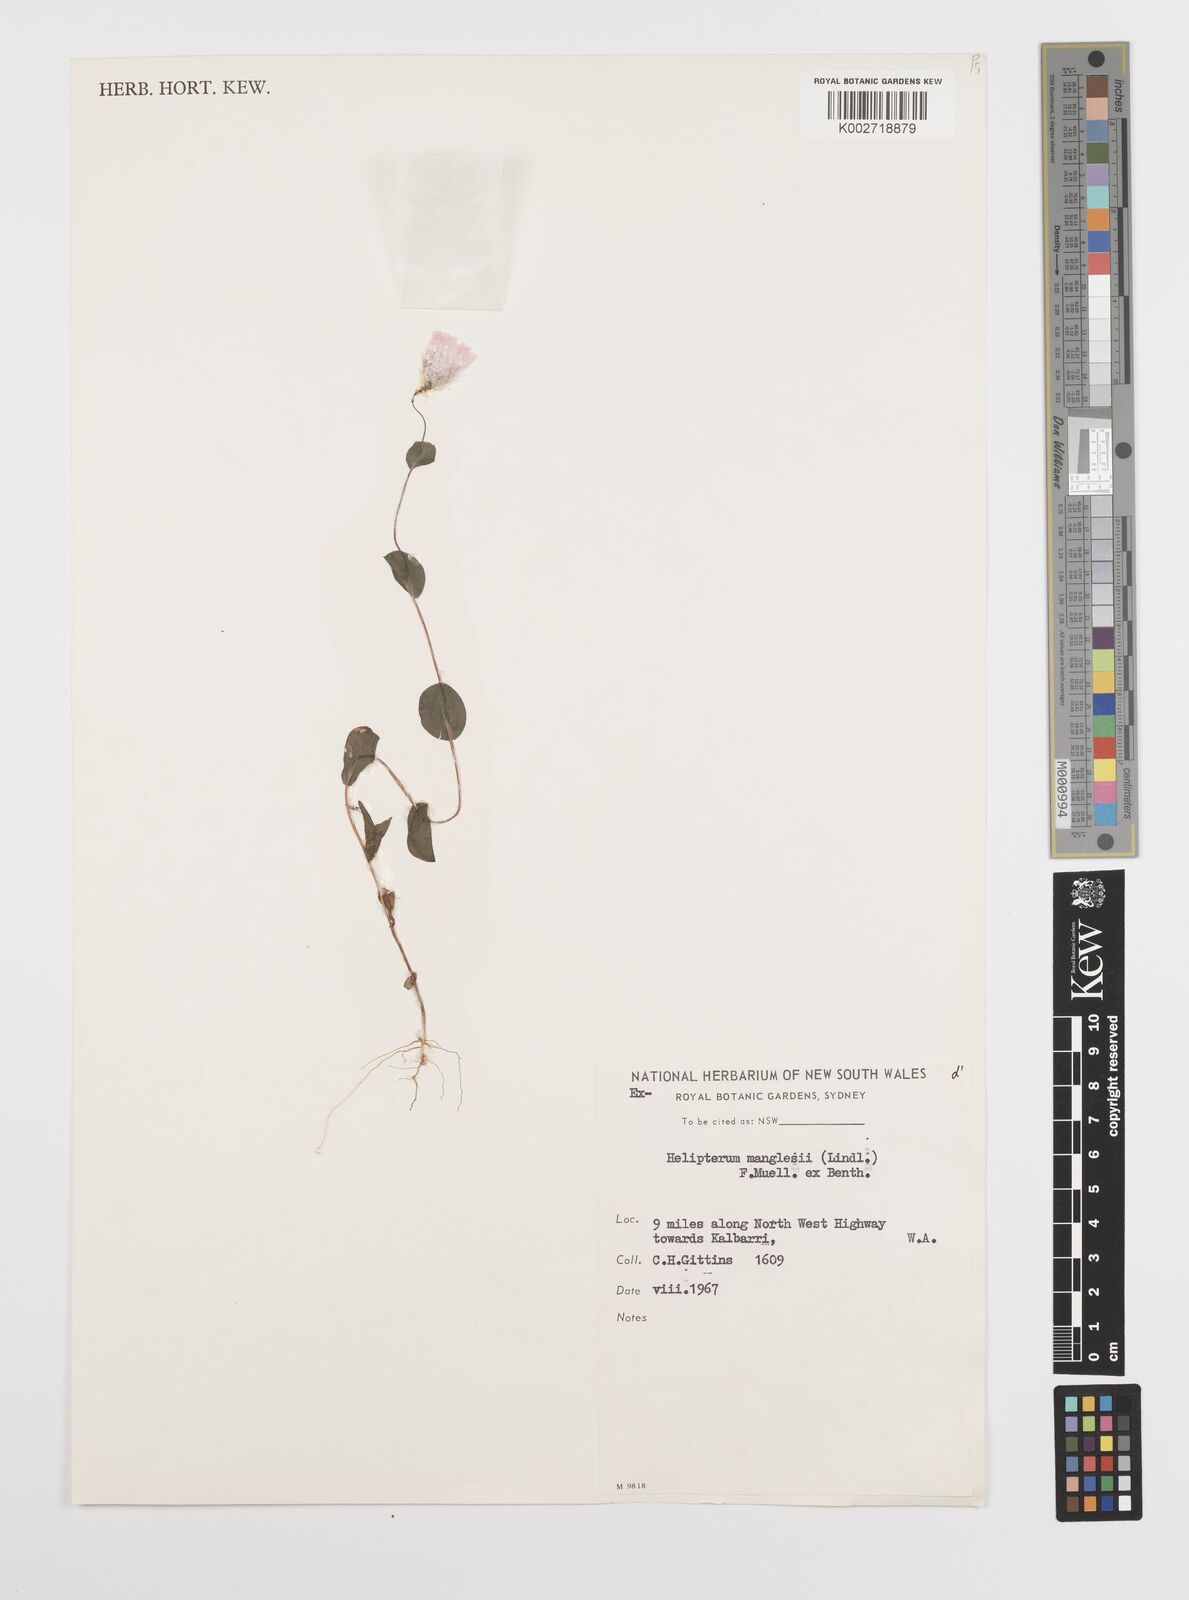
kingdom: Plantae
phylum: Tracheophyta
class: Magnoliopsida
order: Asterales
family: Asteraceae
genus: Rhodanthe
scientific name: Rhodanthe manglesii
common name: Pink sunray
